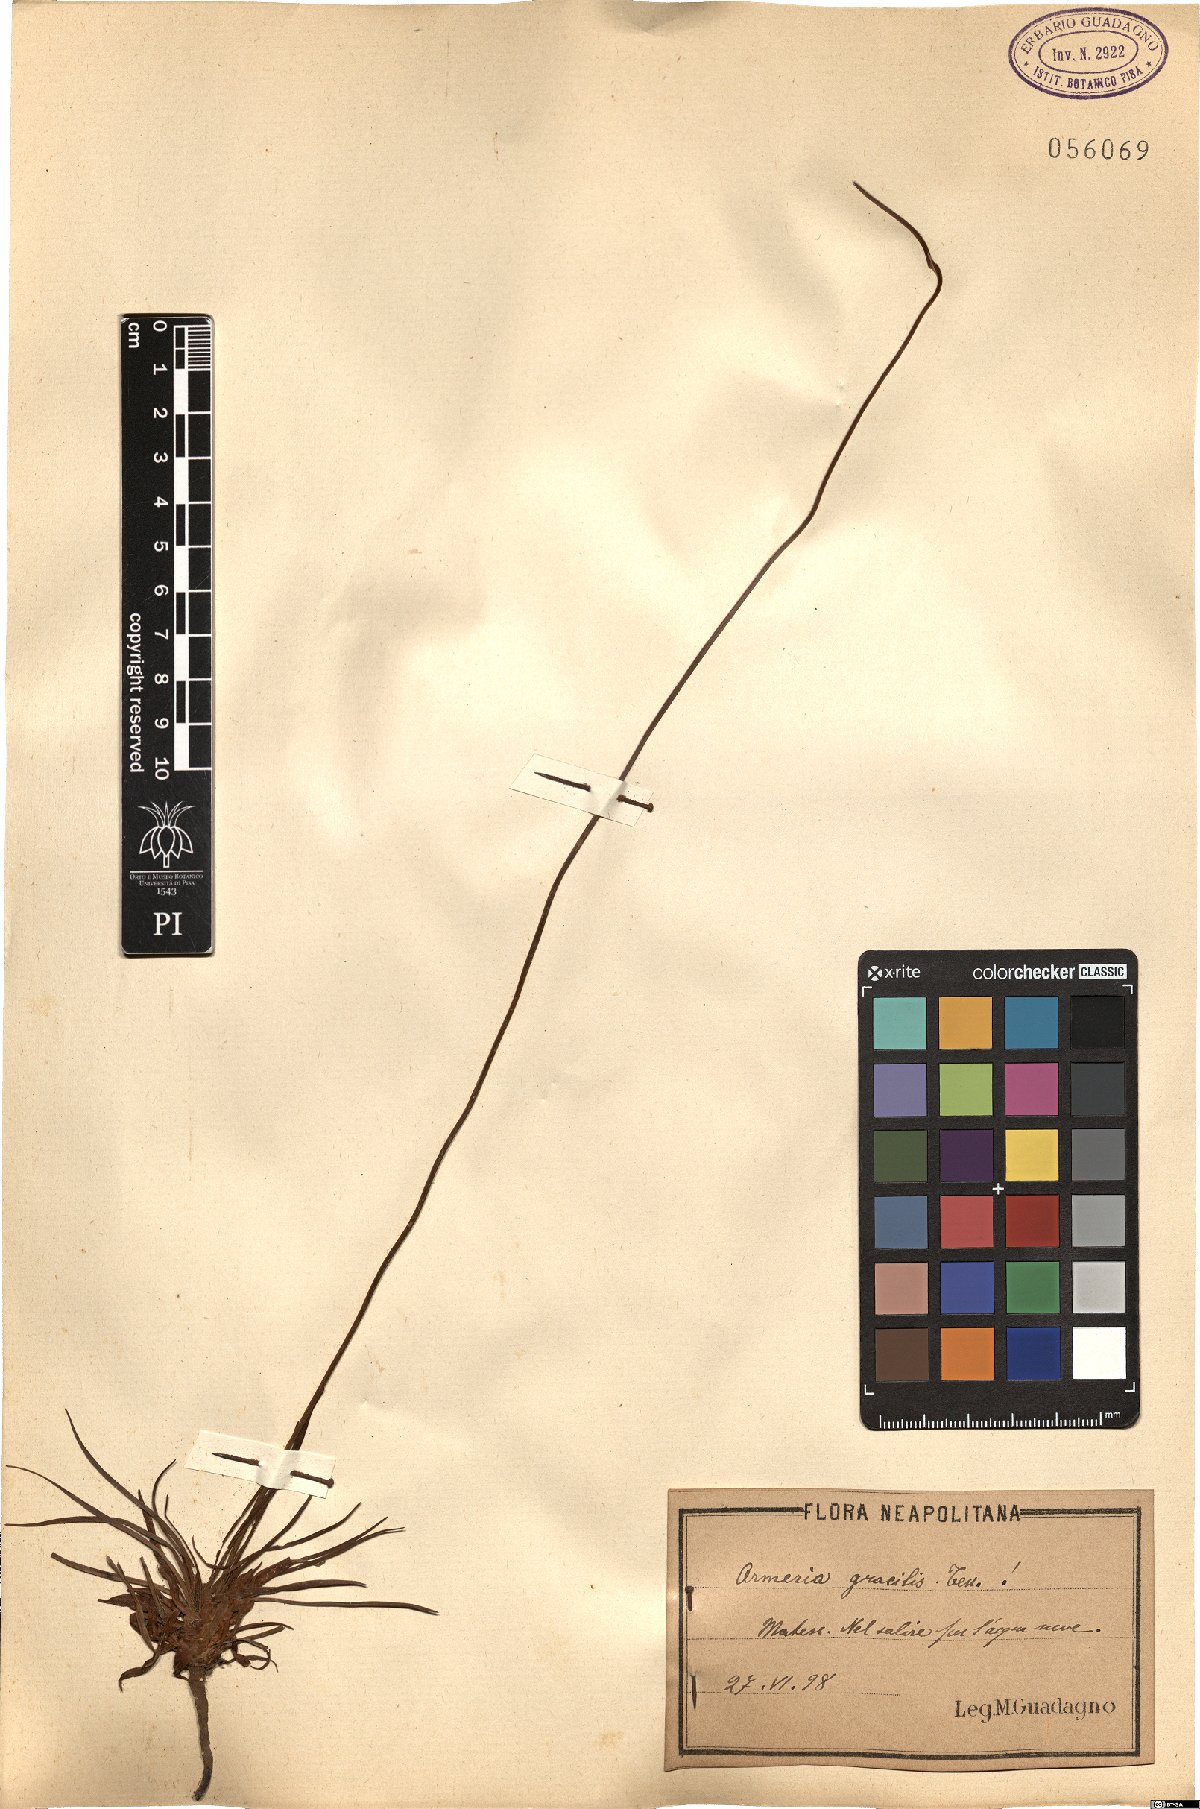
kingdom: Plantae
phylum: Tracheophyta
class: Magnoliopsida
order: Caryophyllales
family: Plumbaginaceae
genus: Armeria
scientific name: Armeria nebrodensis
